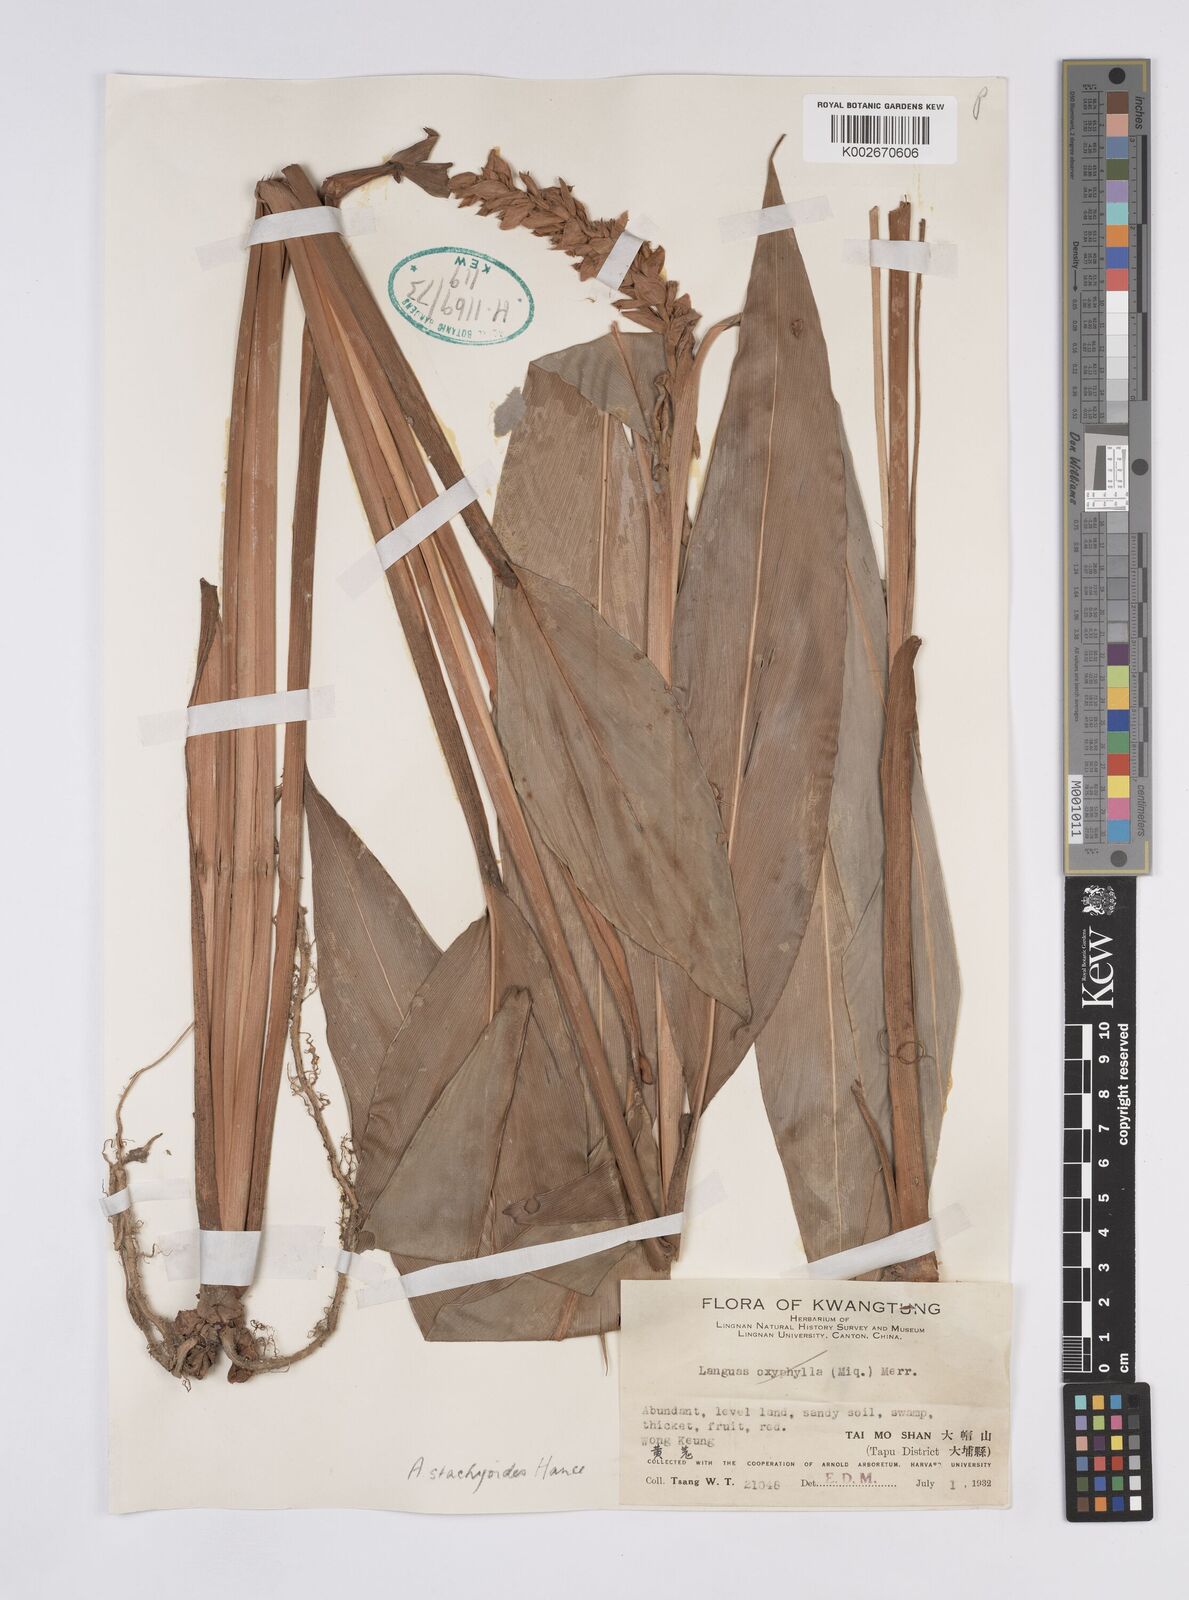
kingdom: Plantae
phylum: Tracheophyta
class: Liliopsida
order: Zingiberales
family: Zingiberaceae
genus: Alpinia
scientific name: Alpinia stachyodes
